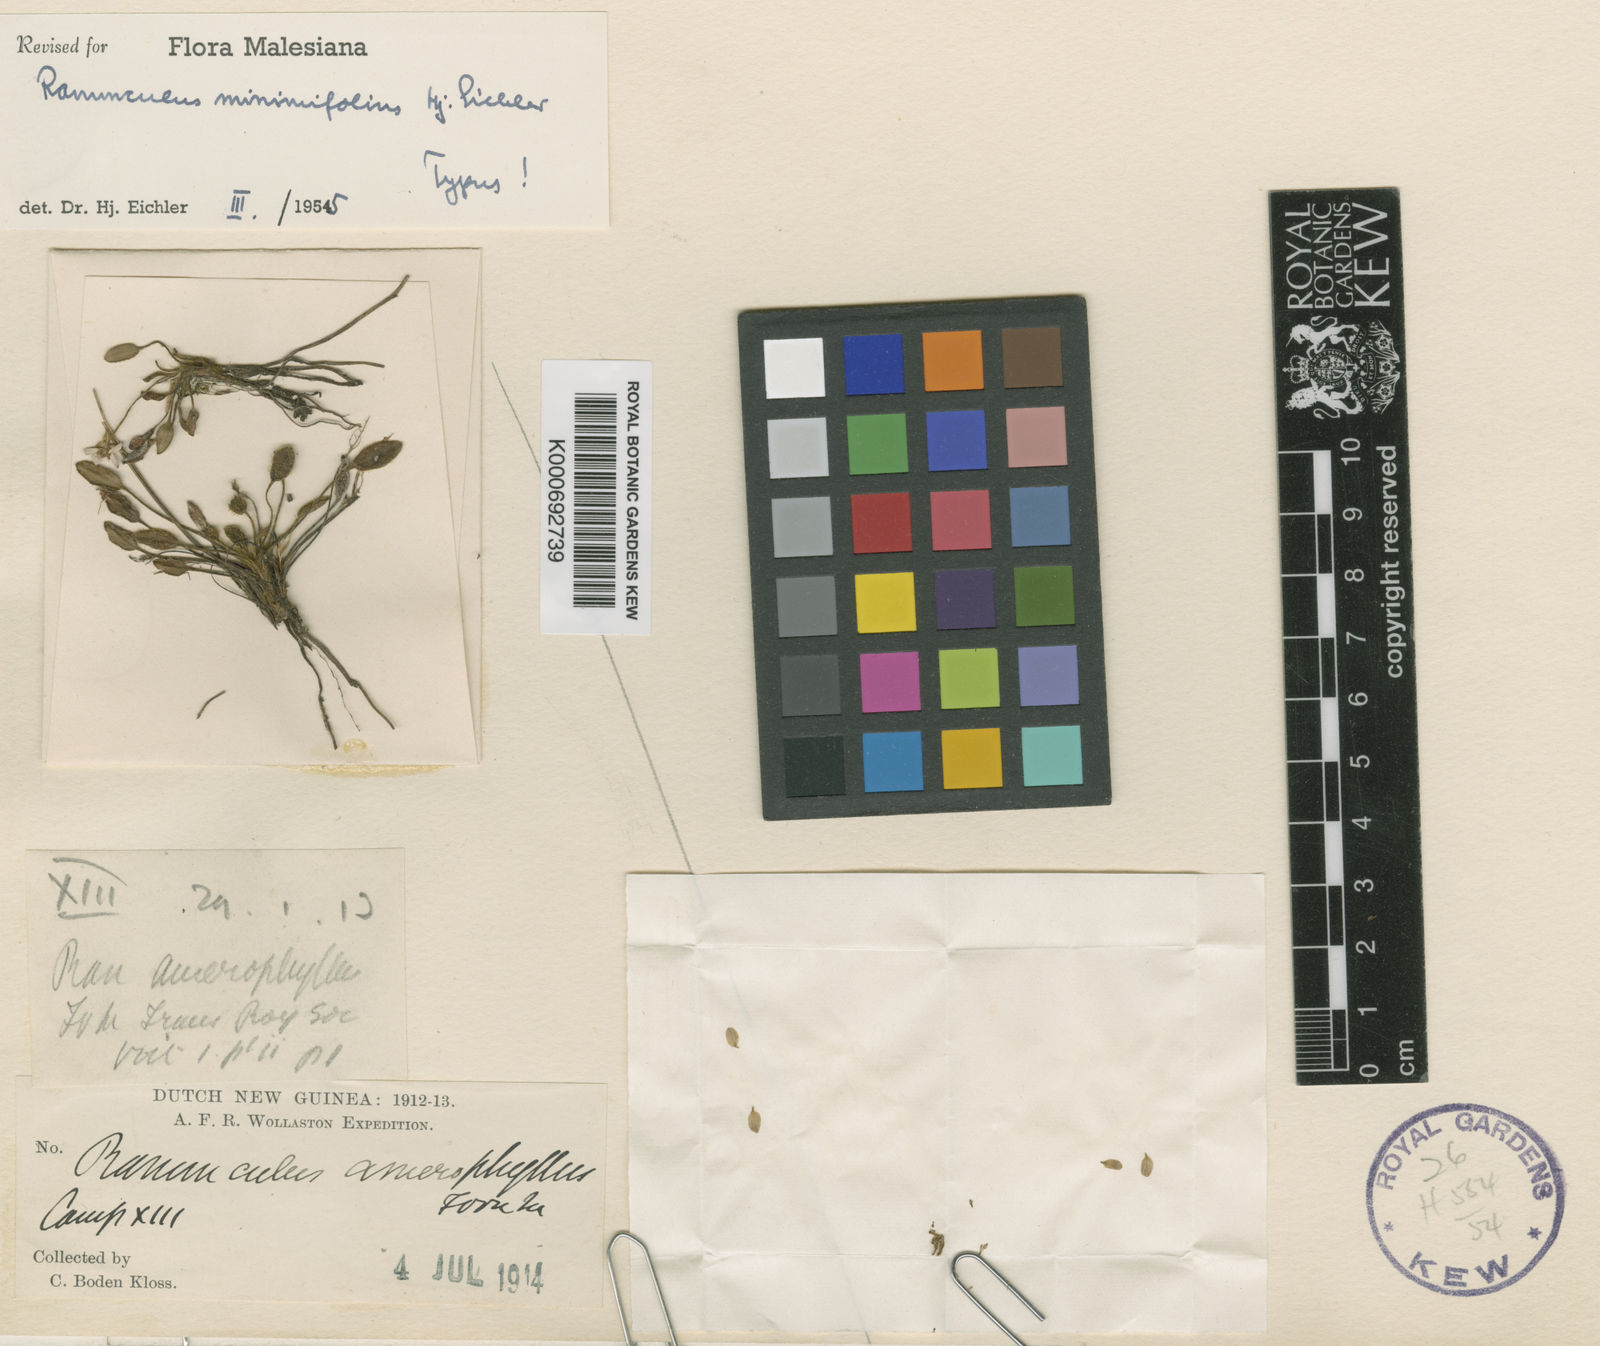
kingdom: Plantae
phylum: Tracheophyta
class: Magnoliopsida
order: Ranunculales
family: Ranunculaceae
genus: Ranunculus
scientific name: Ranunculus minimifolius
